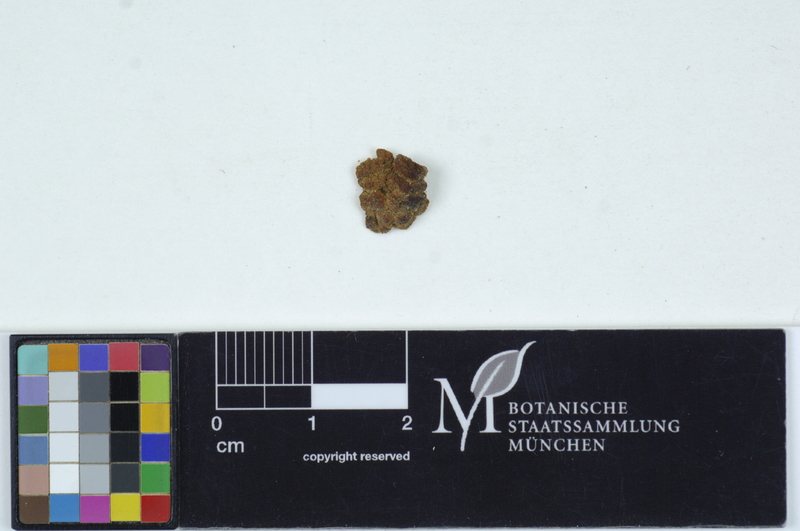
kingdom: Fungi
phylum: Basidiomycota
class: Agaricomycetes
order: Agaricales
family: Omphalotaceae
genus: Gymnopus
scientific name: Gymnopus dryophilus
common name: Penny top
